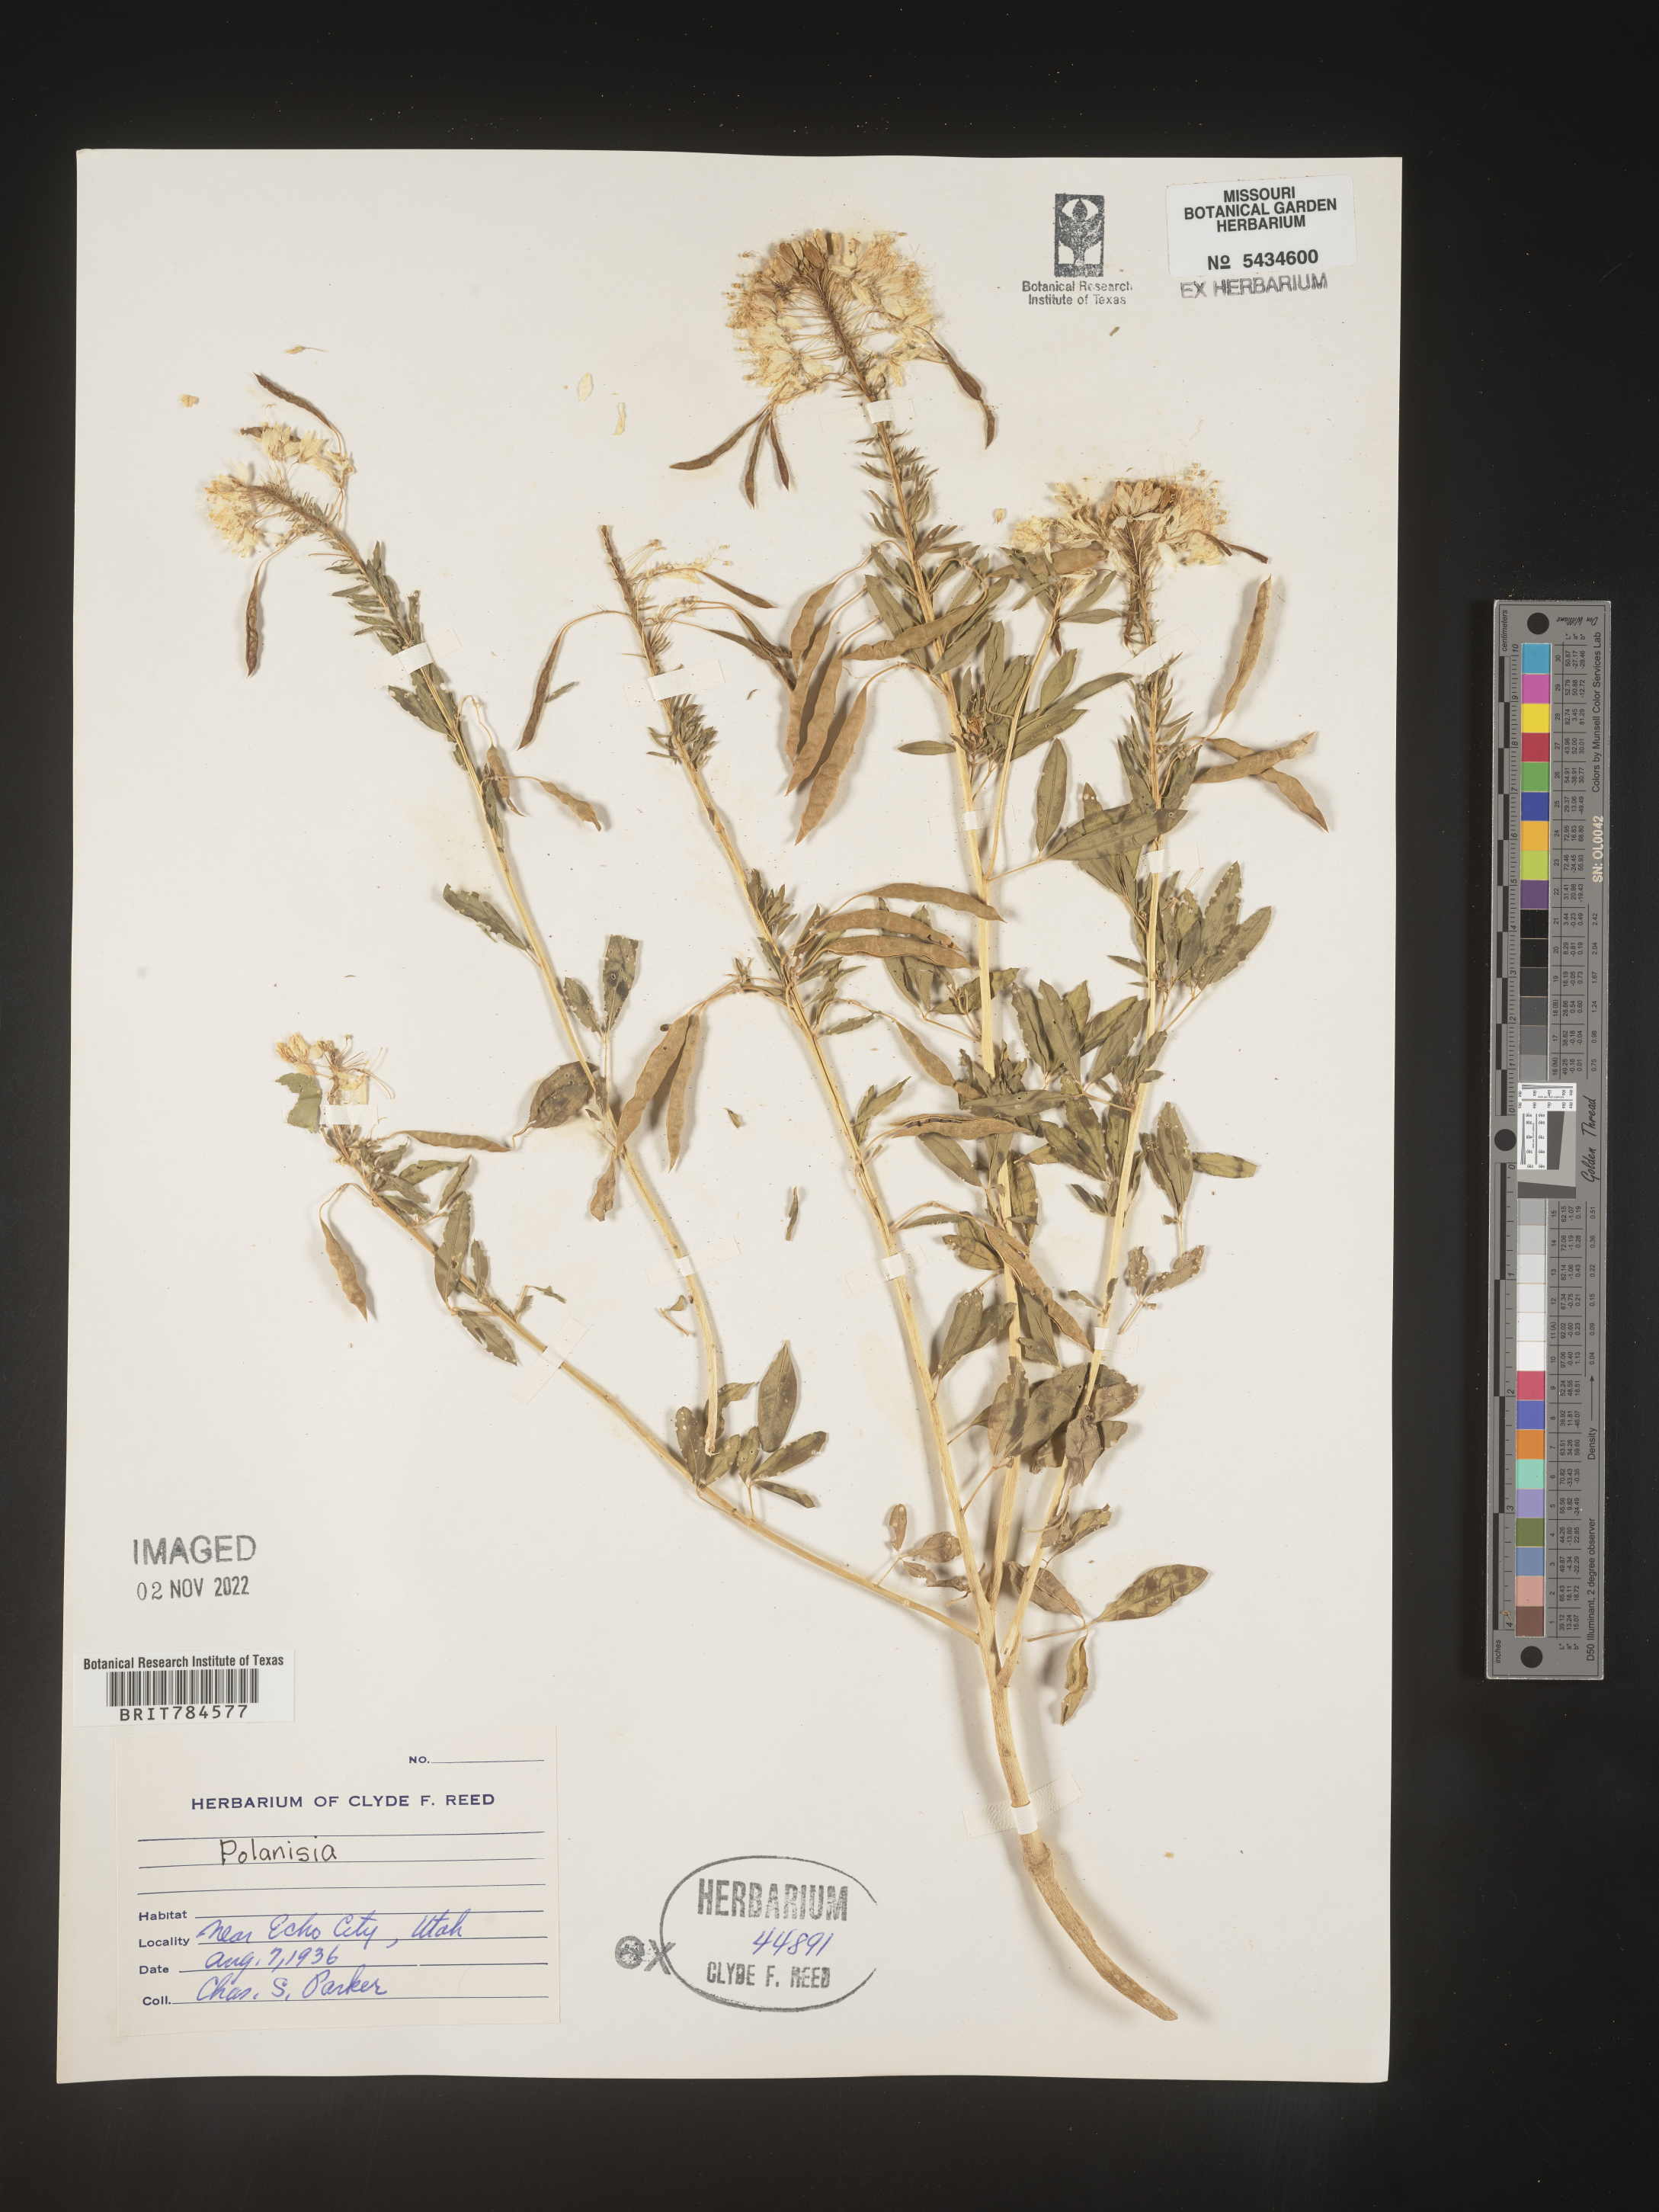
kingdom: Plantae
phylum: Tracheophyta
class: Magnoliopsida
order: Brassicales
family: Cleomaceae
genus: Polanisia
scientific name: Polanisia
